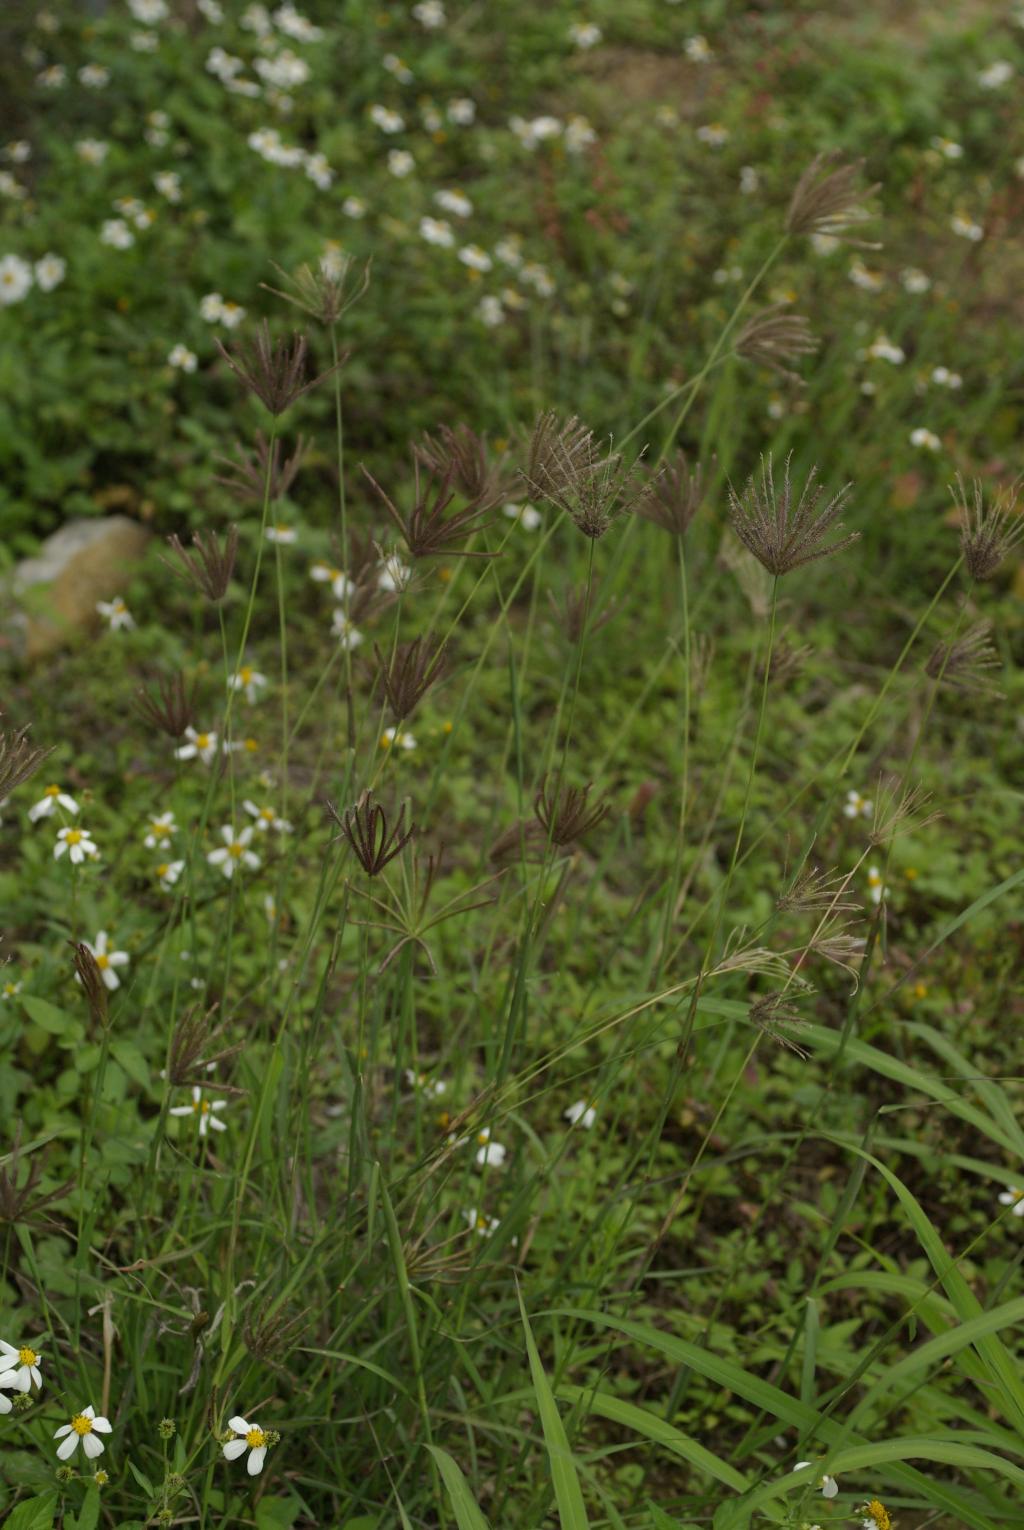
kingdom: Plantae
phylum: Tracheophyta
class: Liliopsida
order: Poales
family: Poaceae
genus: Chloris
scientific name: Chloris barbata
